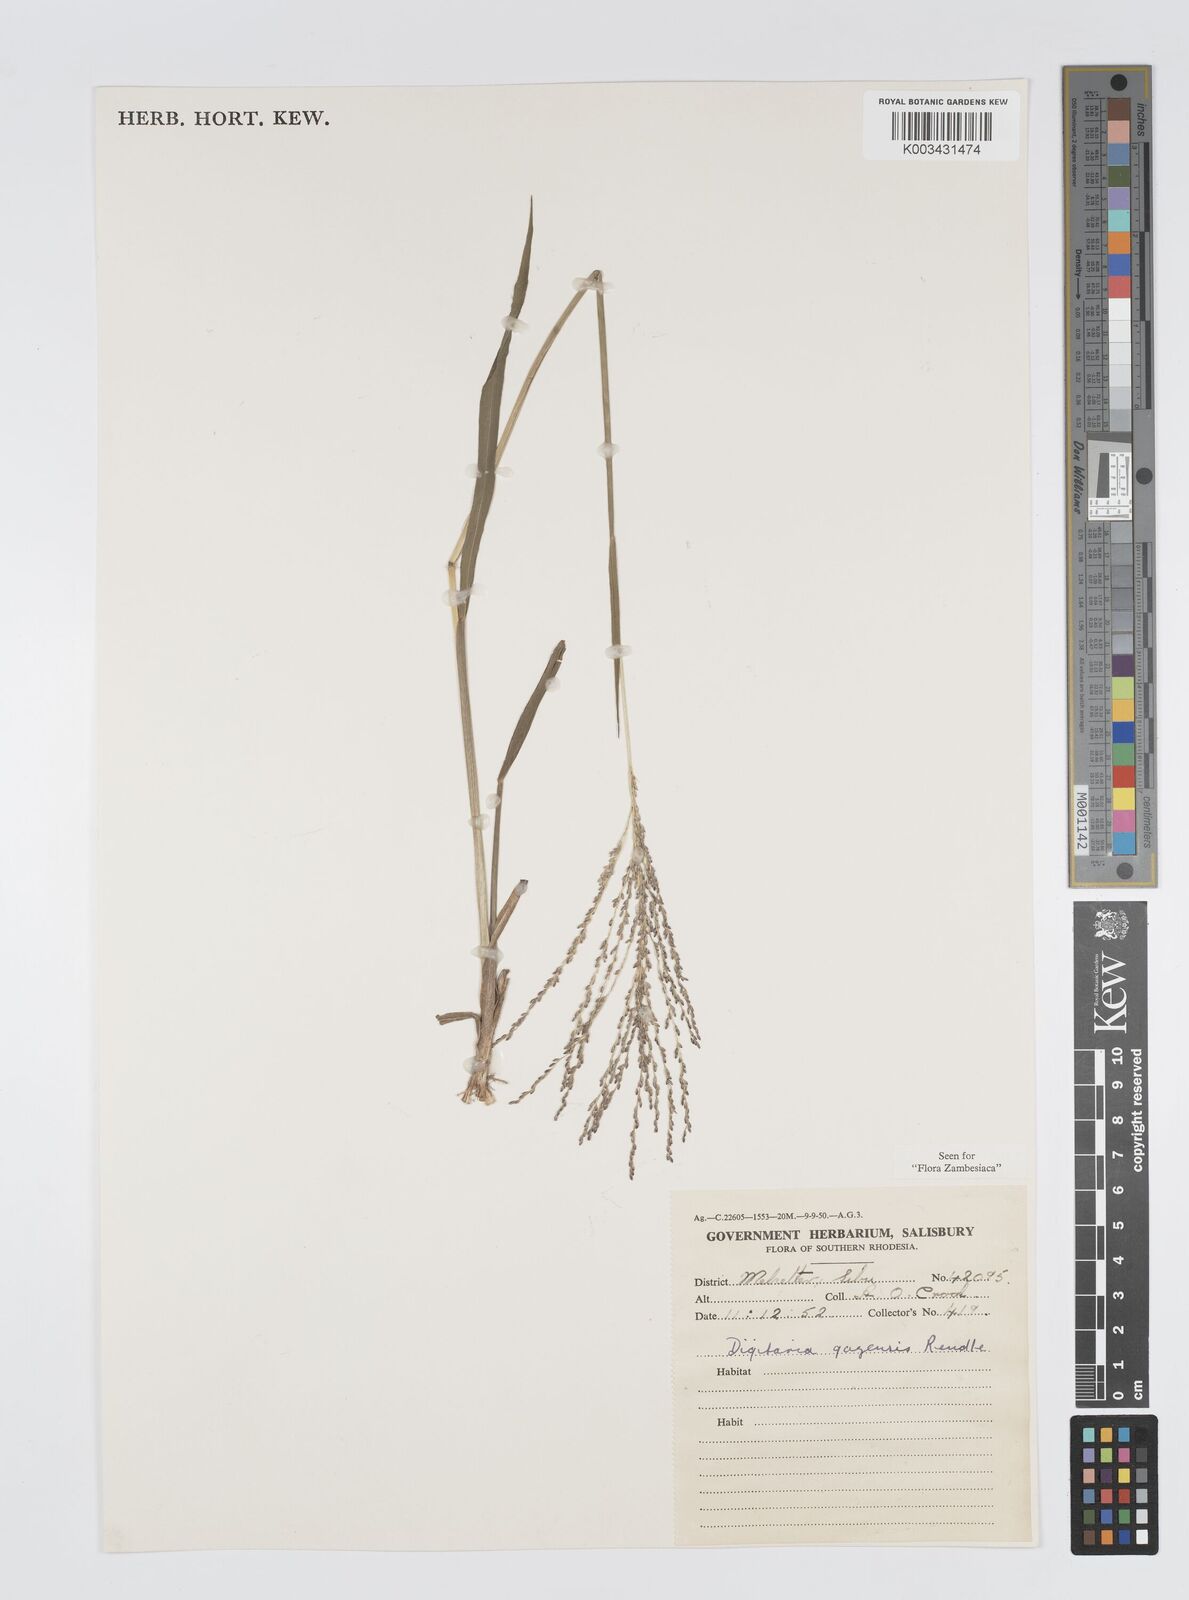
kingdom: Plantae
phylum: Tracheophyta
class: Liliopsida
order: Poales
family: Poaceae
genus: Digitaria
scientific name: Digitaria gazensis
